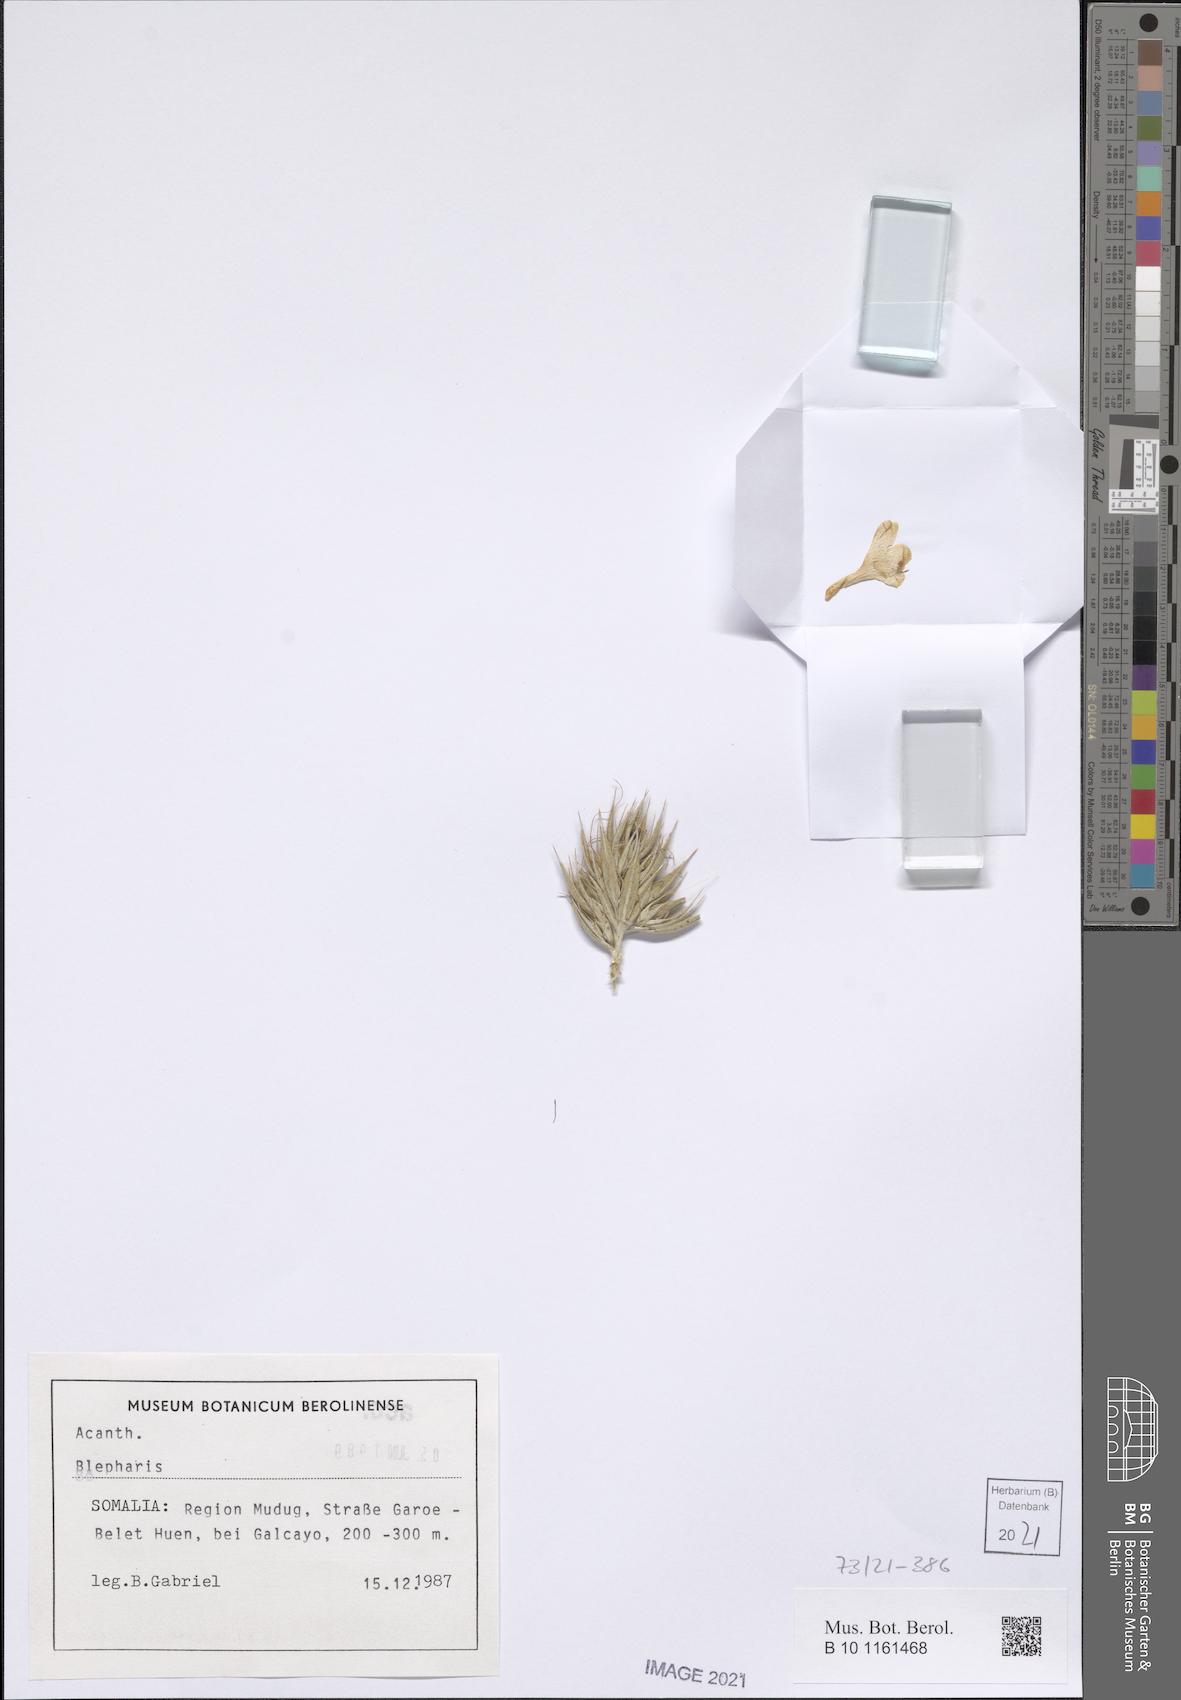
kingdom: Plantae
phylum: Tracheophyta
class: Magnoliopsida
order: Lamiales
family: Acanthaceae
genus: Barleria
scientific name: Barleria quadrispina
